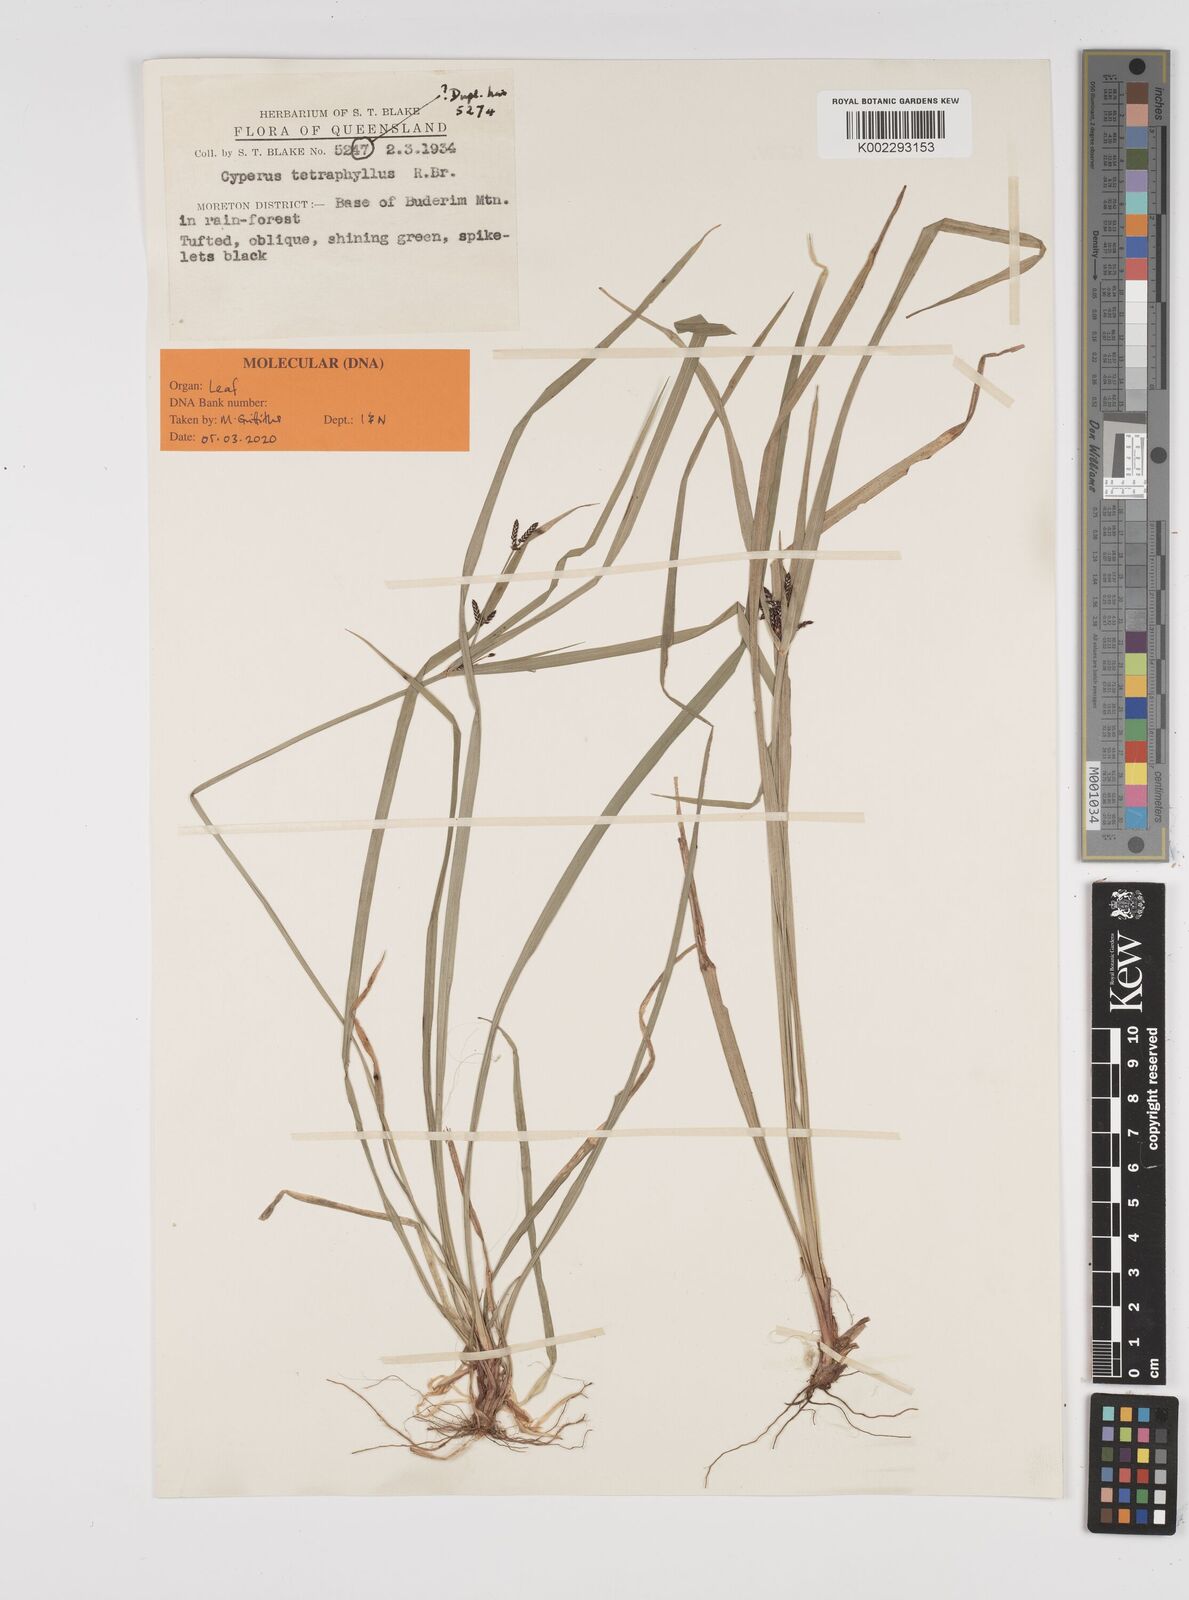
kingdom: Plantae
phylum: Tracheophyta
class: Liliopsida
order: Poales
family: Cyperaceae
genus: Cyperus
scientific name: Cyperus tetraphyllus
